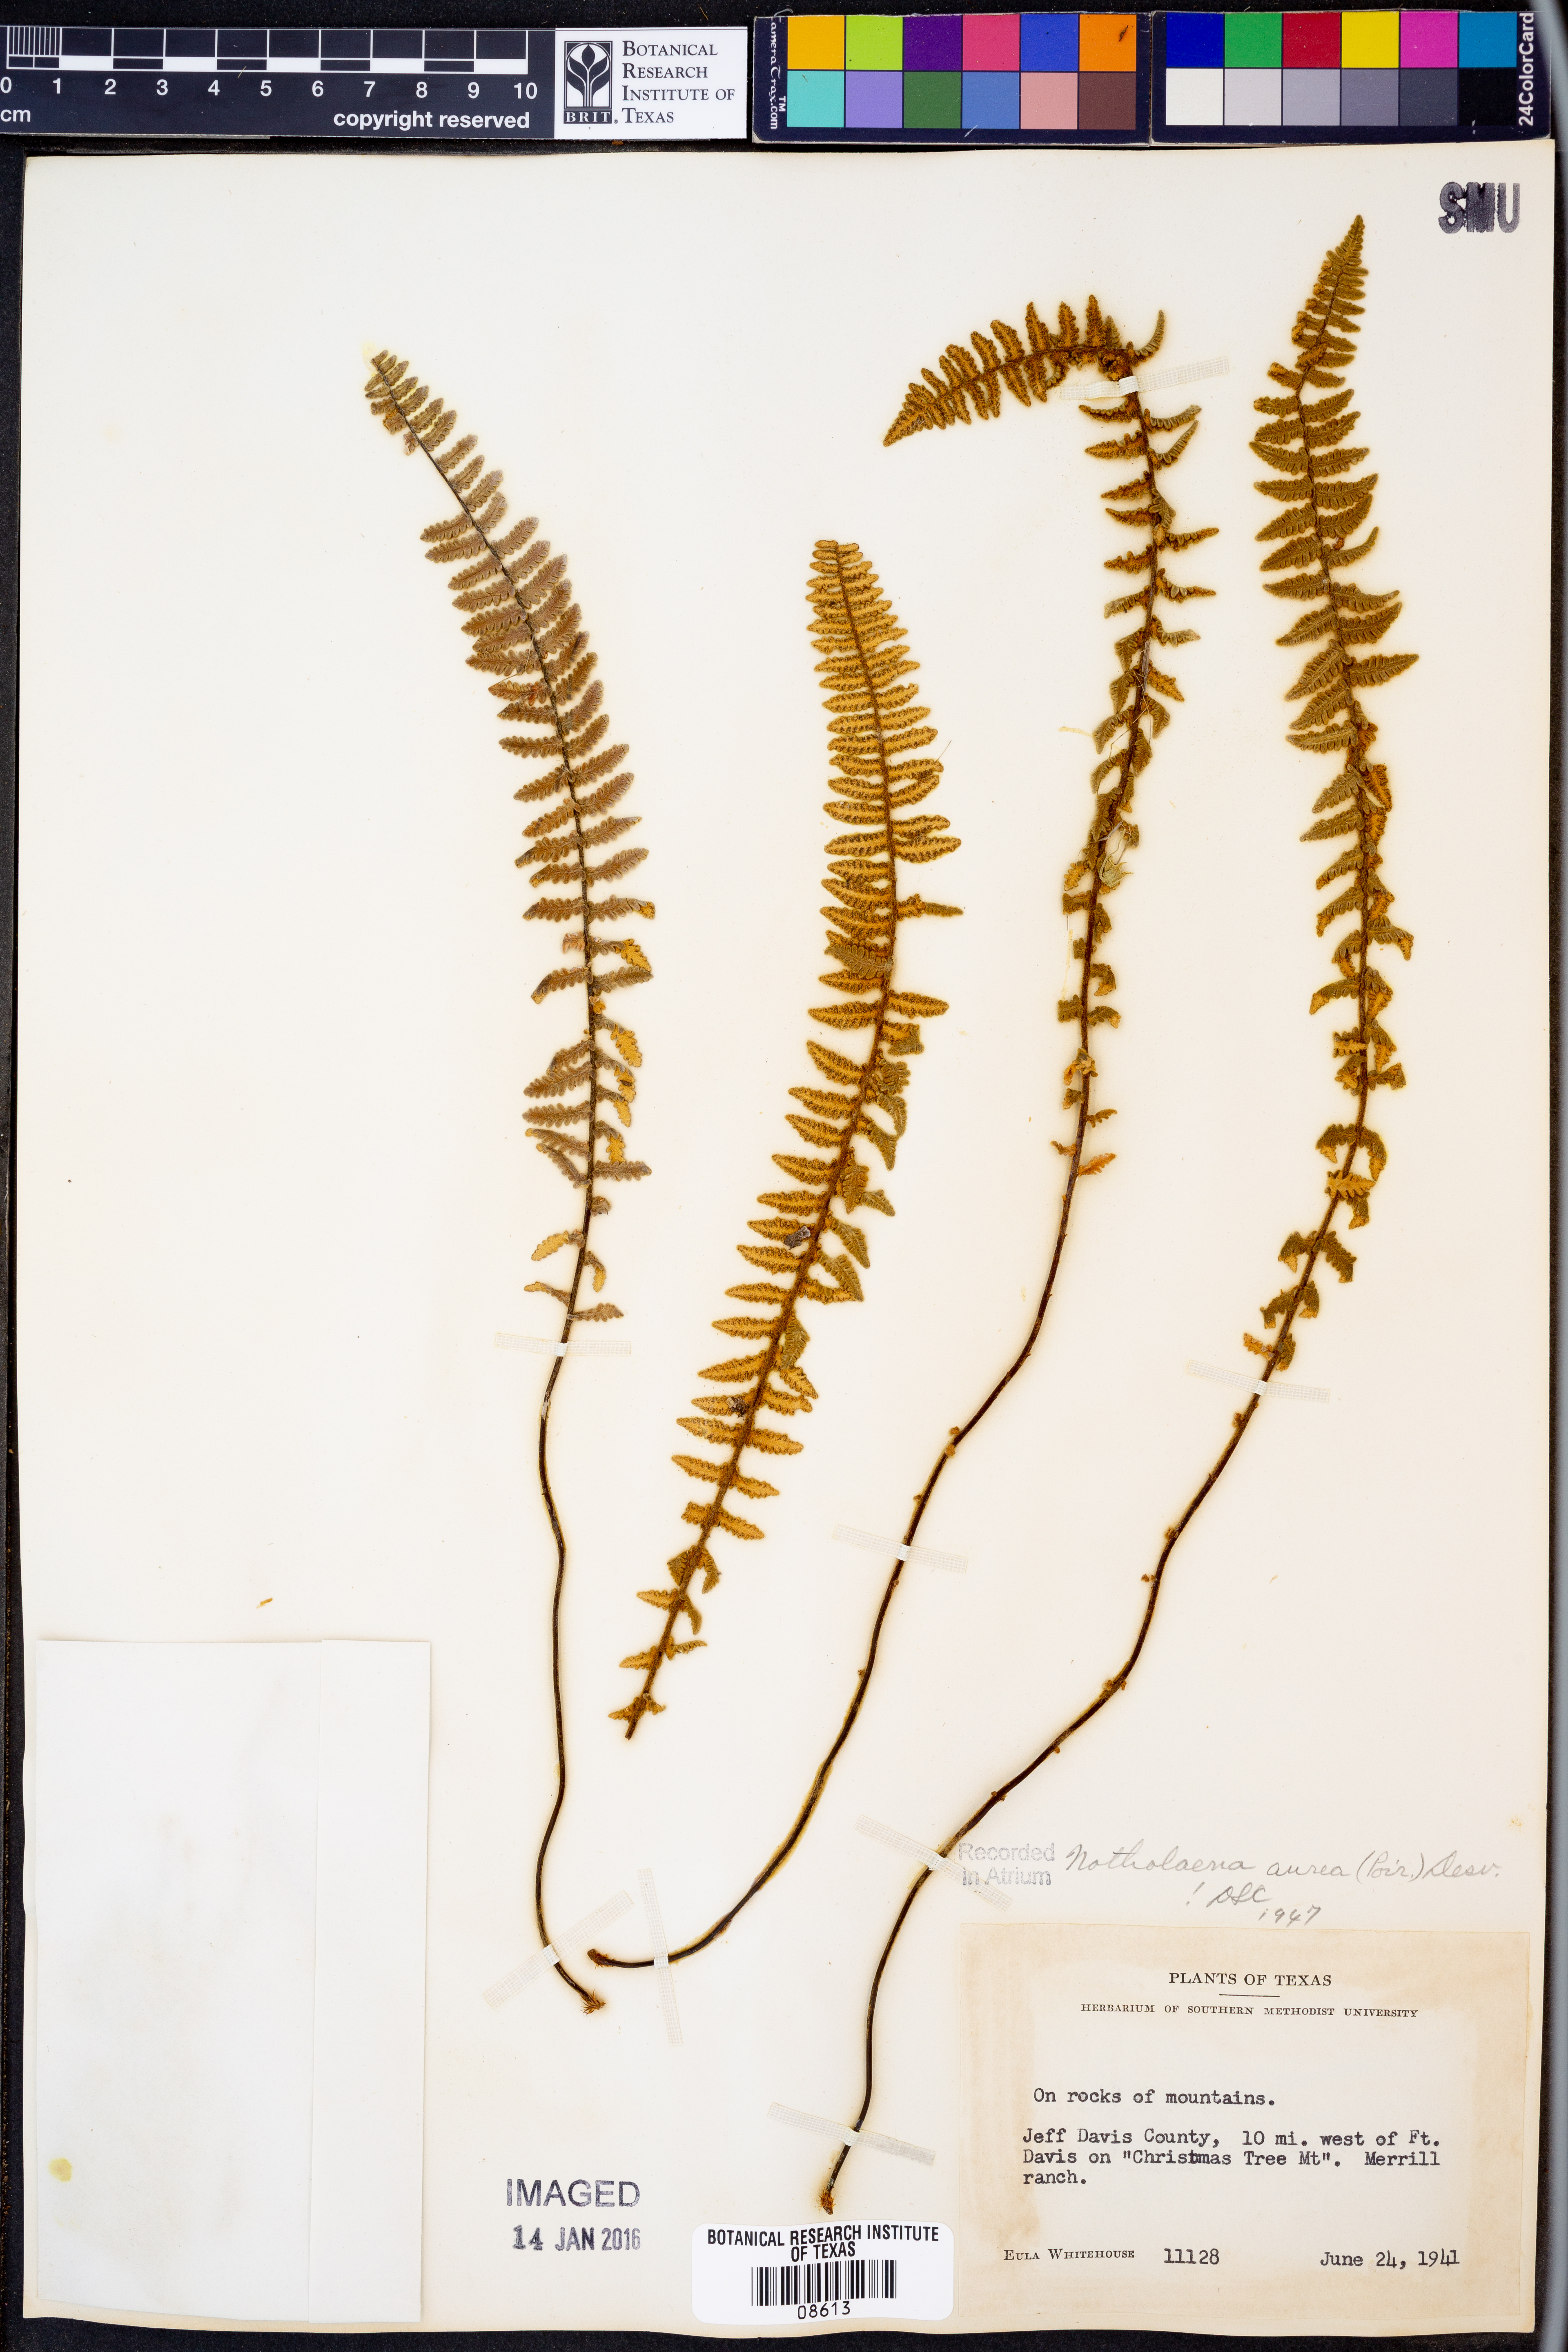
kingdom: Plantae
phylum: Tracheophyta
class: Polypodiopsida
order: Polypodiales
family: Pteridaceae
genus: Myriopteris
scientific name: Myriopteris aurea
